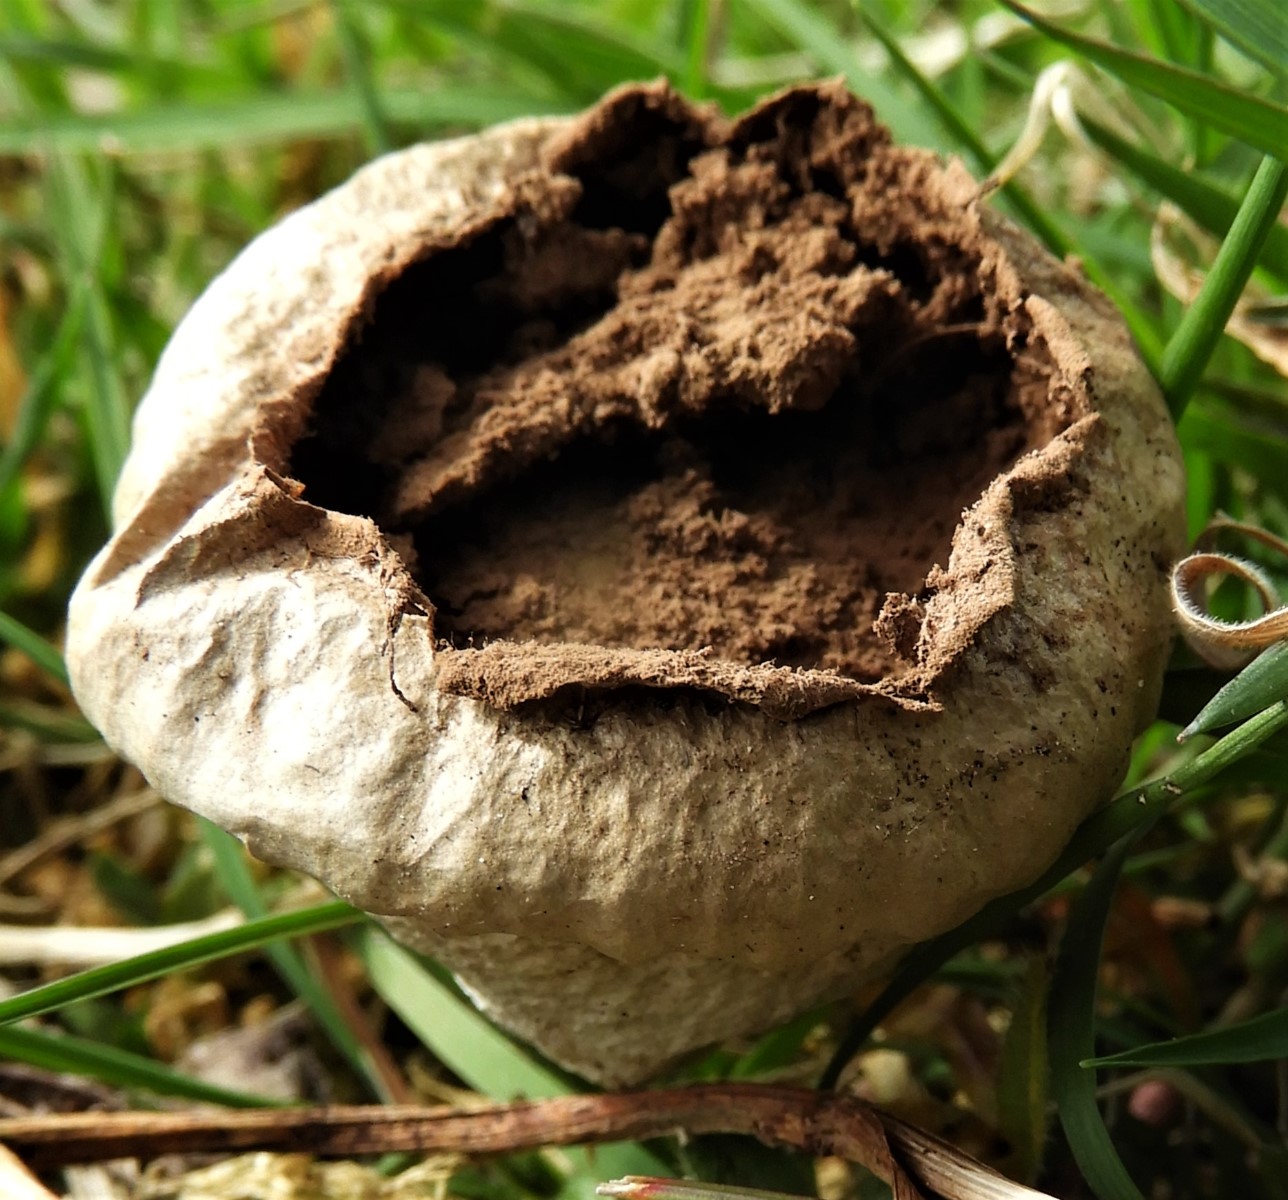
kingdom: Fungi
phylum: Basidiomycota
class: Agaricomycetes
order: Agaricales
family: Lycoperdaceae
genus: Lycoperdon
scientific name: Lycoperdon pratense
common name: flad støvbold
